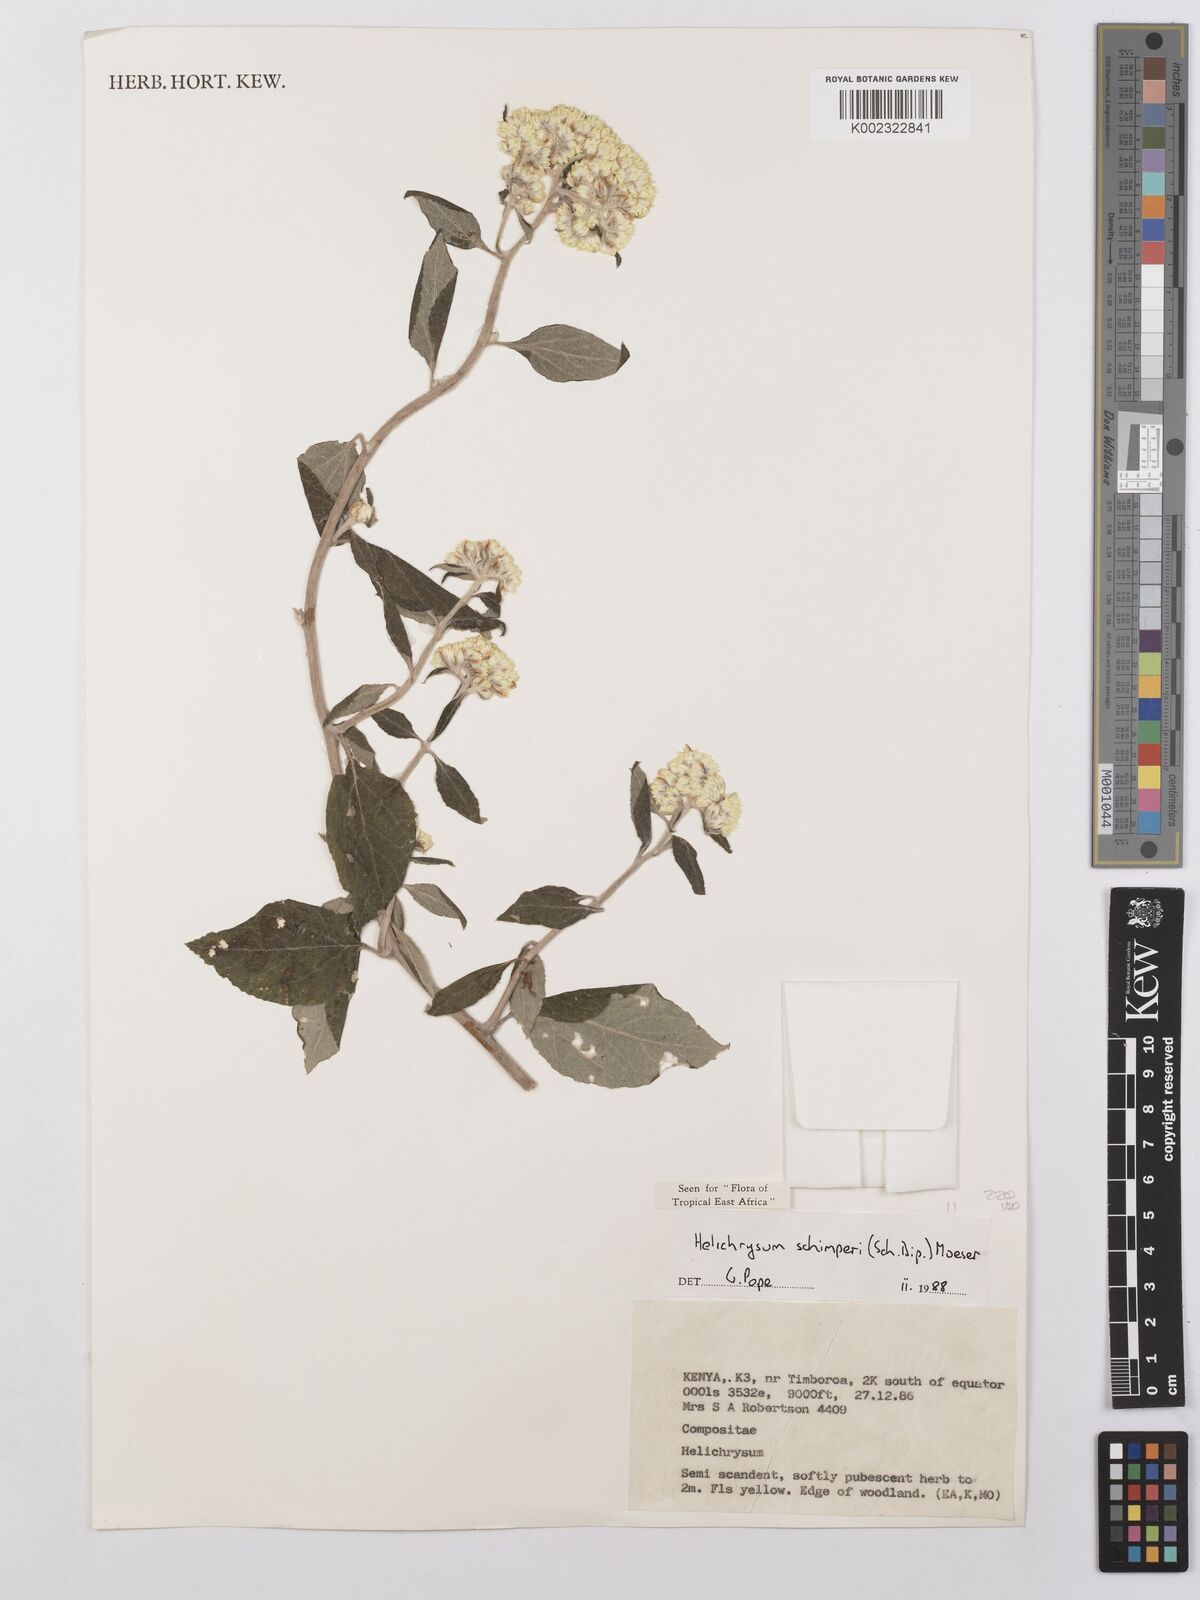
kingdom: Plantae
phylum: Tracheophyta
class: Magnoliopsida
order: Asterales
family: Asteraceae
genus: Helichrysum
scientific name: Helichrysum schimperi
